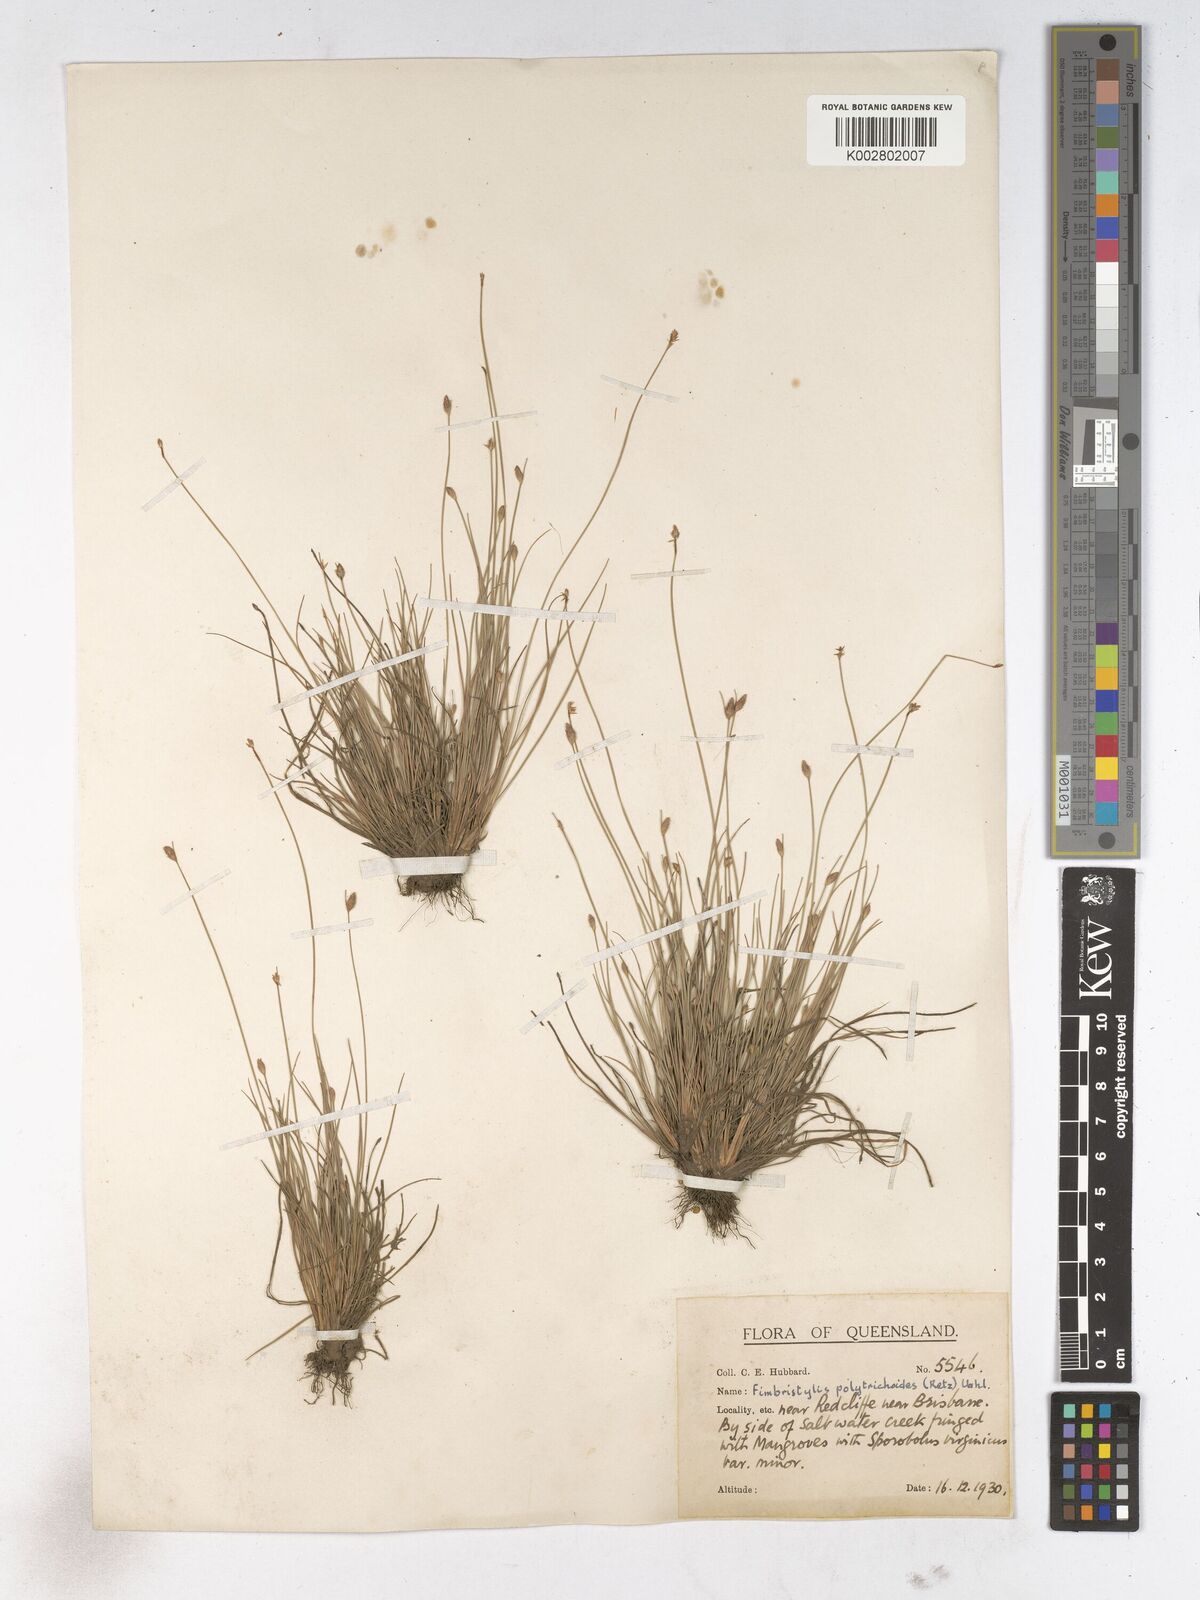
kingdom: Plantae
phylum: Tracheophyta
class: Liliopsida
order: Poales
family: Cyperaceae
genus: Fimbristylis
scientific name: Fimbristylis polytrichoides
